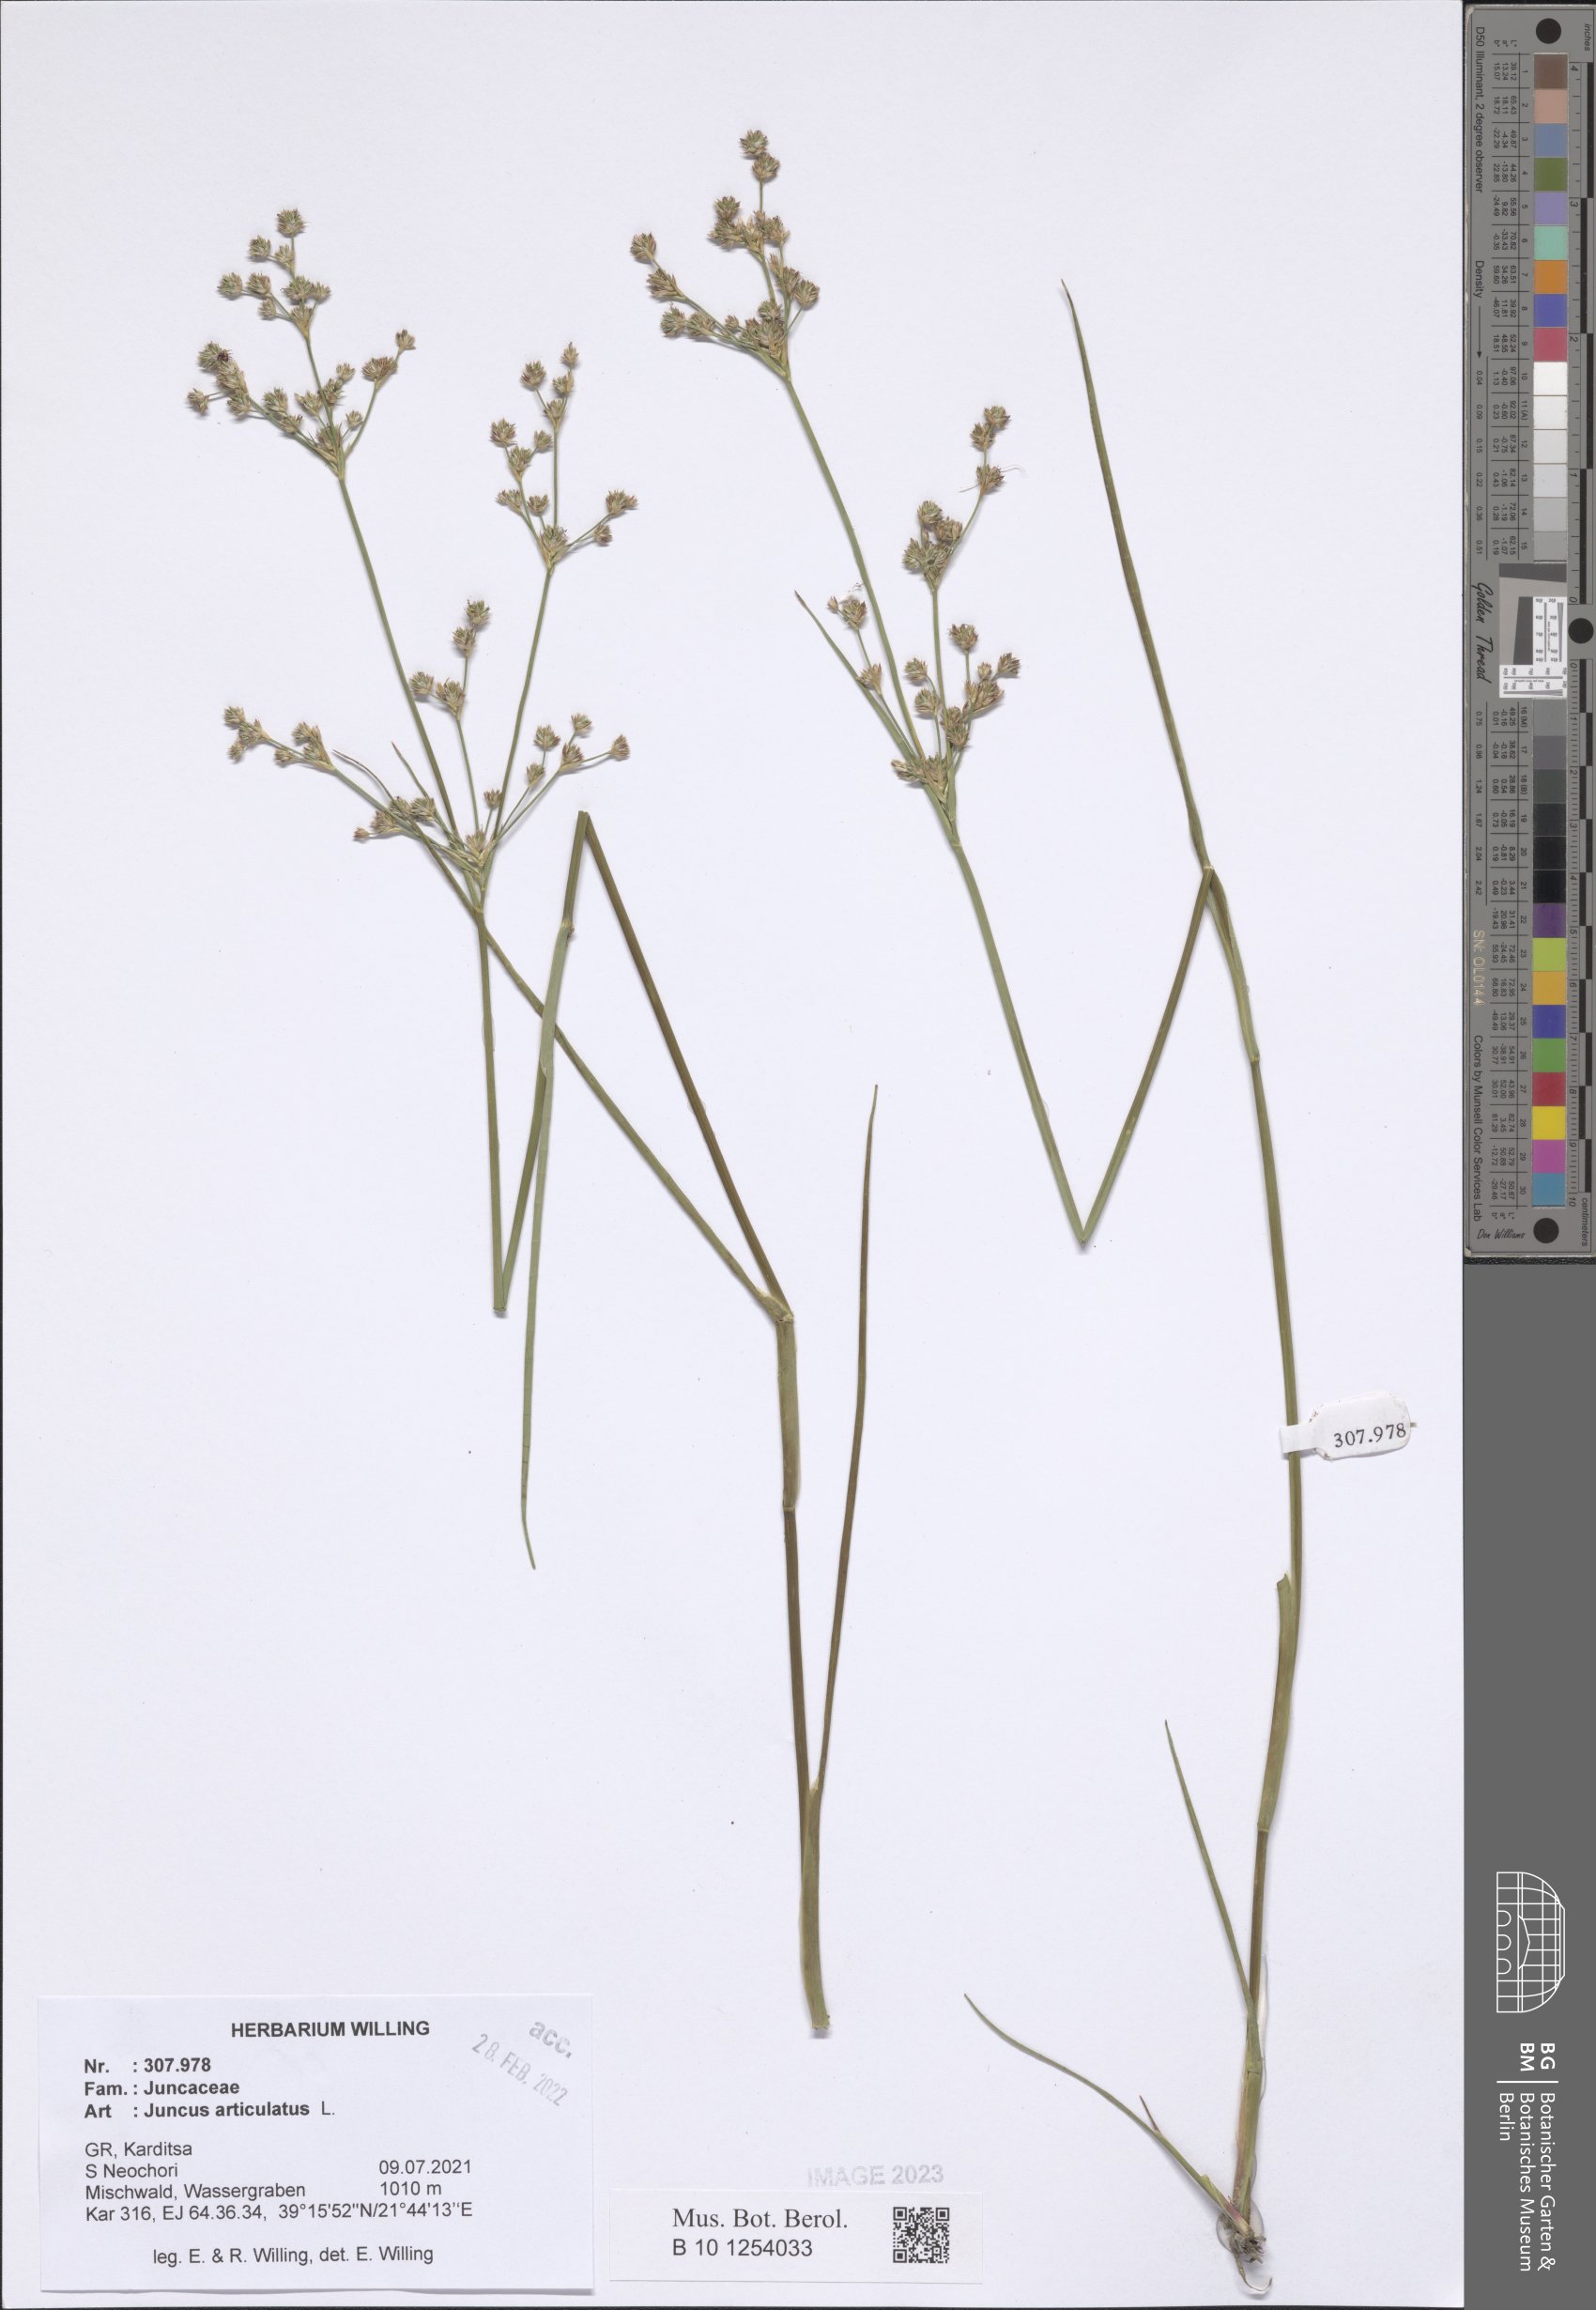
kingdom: Plantae
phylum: Tracheophyta
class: Liliopsida
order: Poales
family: Juncaceae
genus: Juncus
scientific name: Juncus articulatus
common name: Jointed rush
